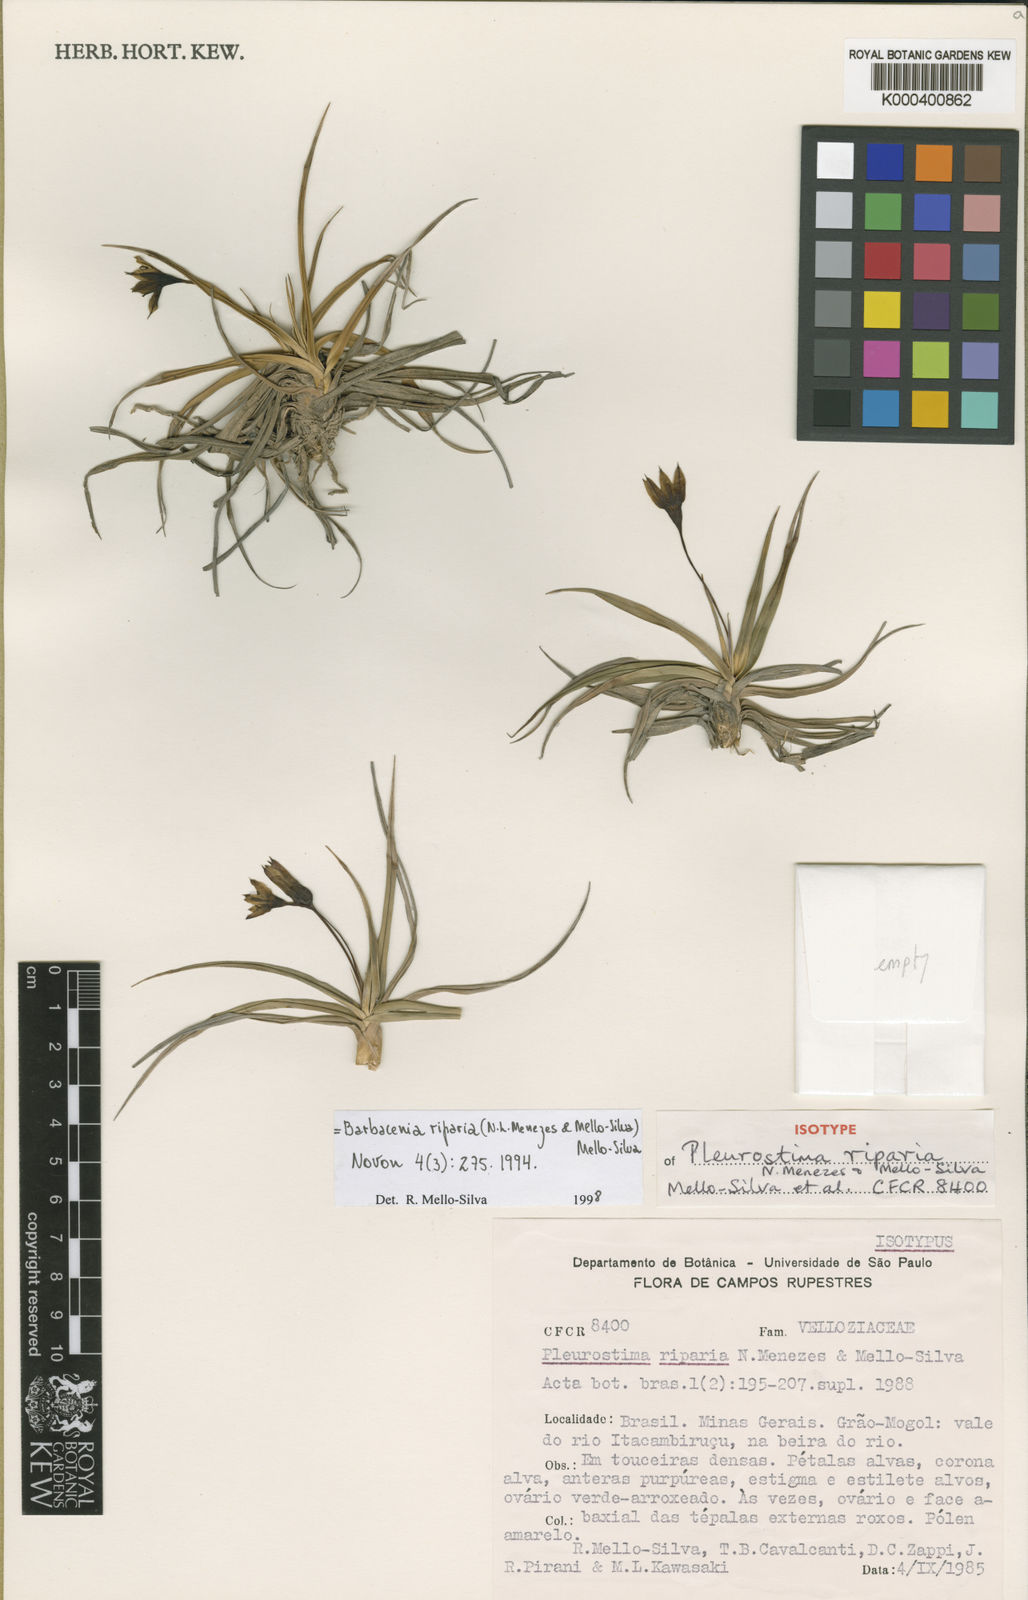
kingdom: Plantae
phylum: Tracheophyta
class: Liliopsida
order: Pandanales
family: Velloziaceae
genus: Barbacenia
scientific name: Barbacenia riparia
